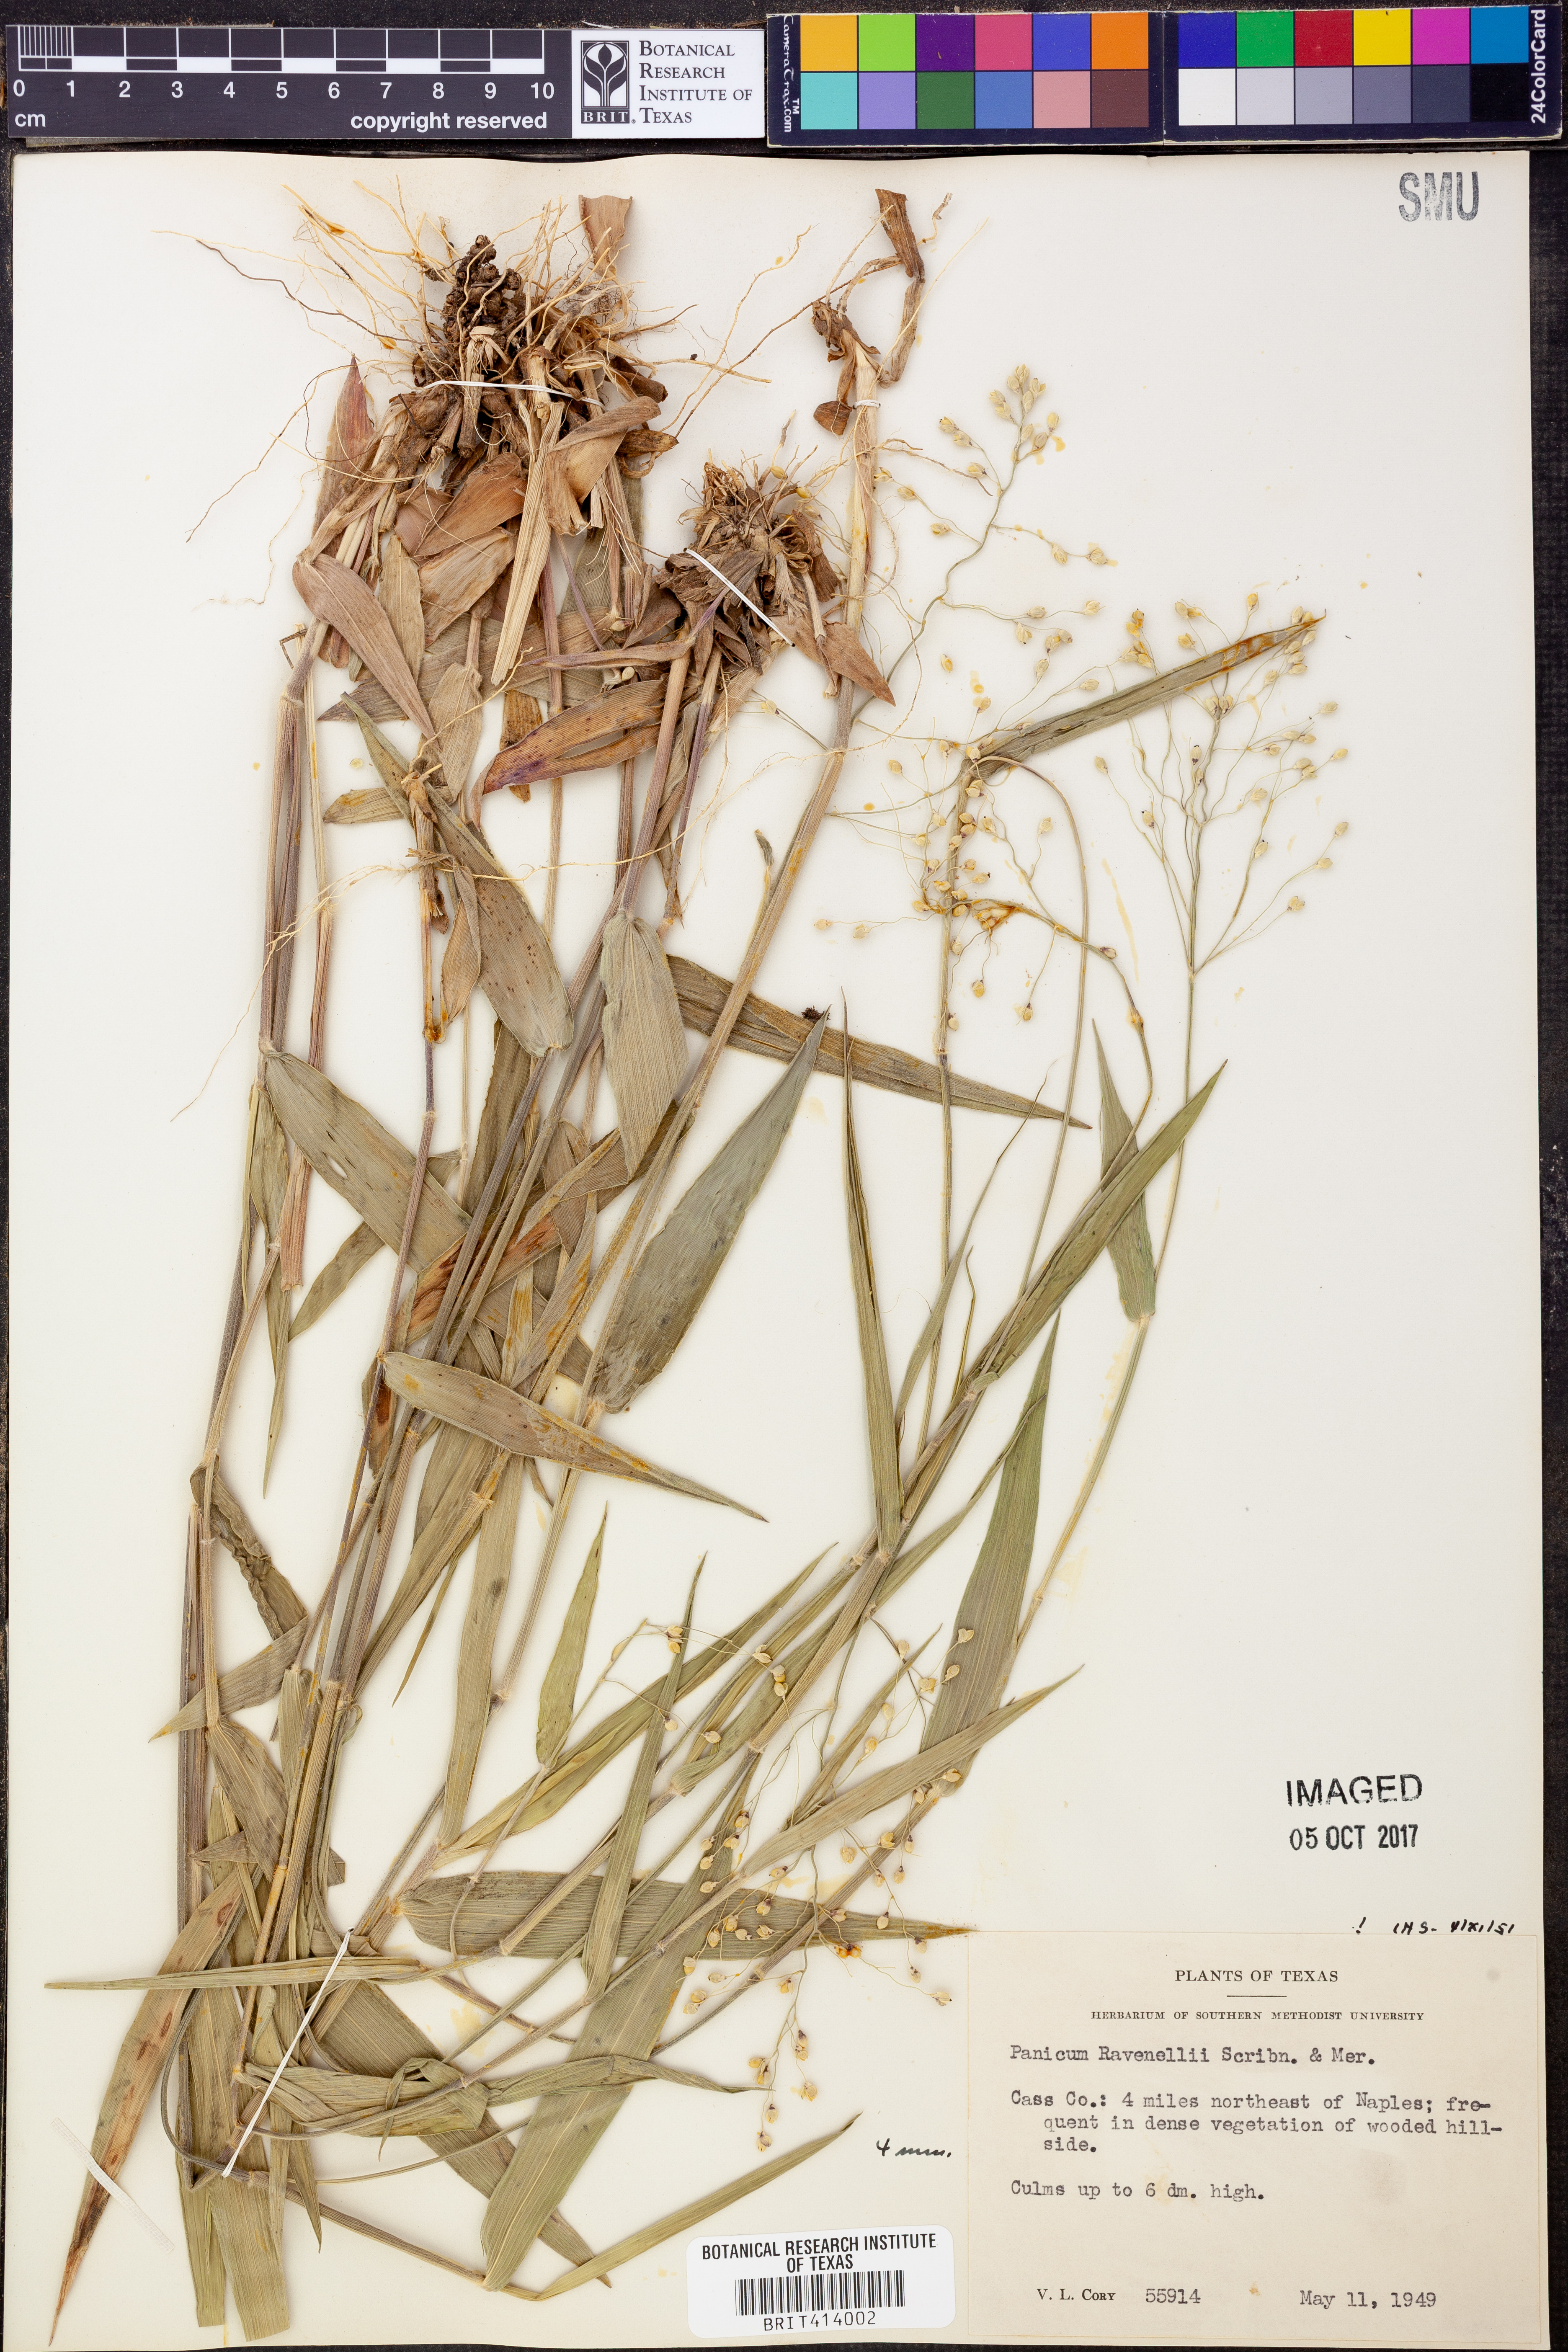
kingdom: Plantae
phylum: Tracheophyta
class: Liliopsida
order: Poales
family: Poaceae
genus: Dichanthelium
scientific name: Dichanthelium ravenelii
